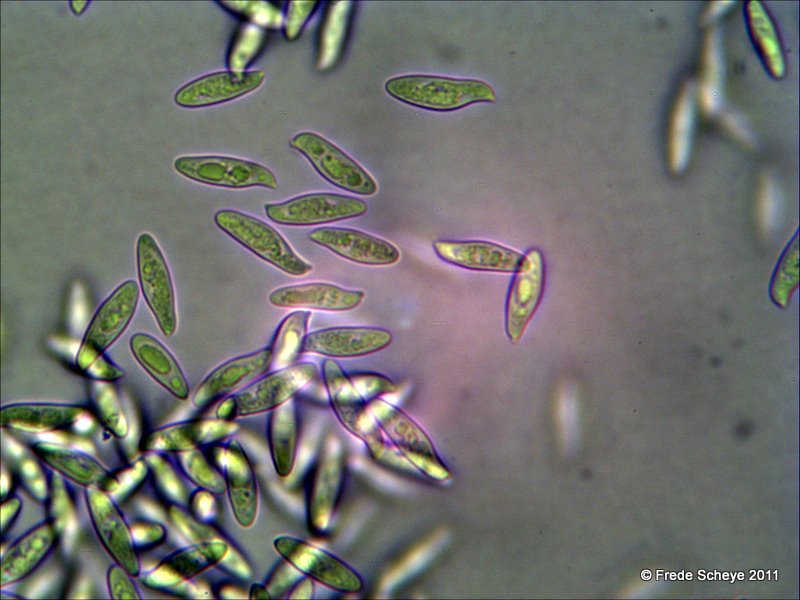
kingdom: Fungi
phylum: Basidiomycota
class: Agaricomycetes
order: Agaricales
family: Agaricaceae
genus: Lepiota
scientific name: Lepiota magnispora
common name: gulfnugget parasolhat
